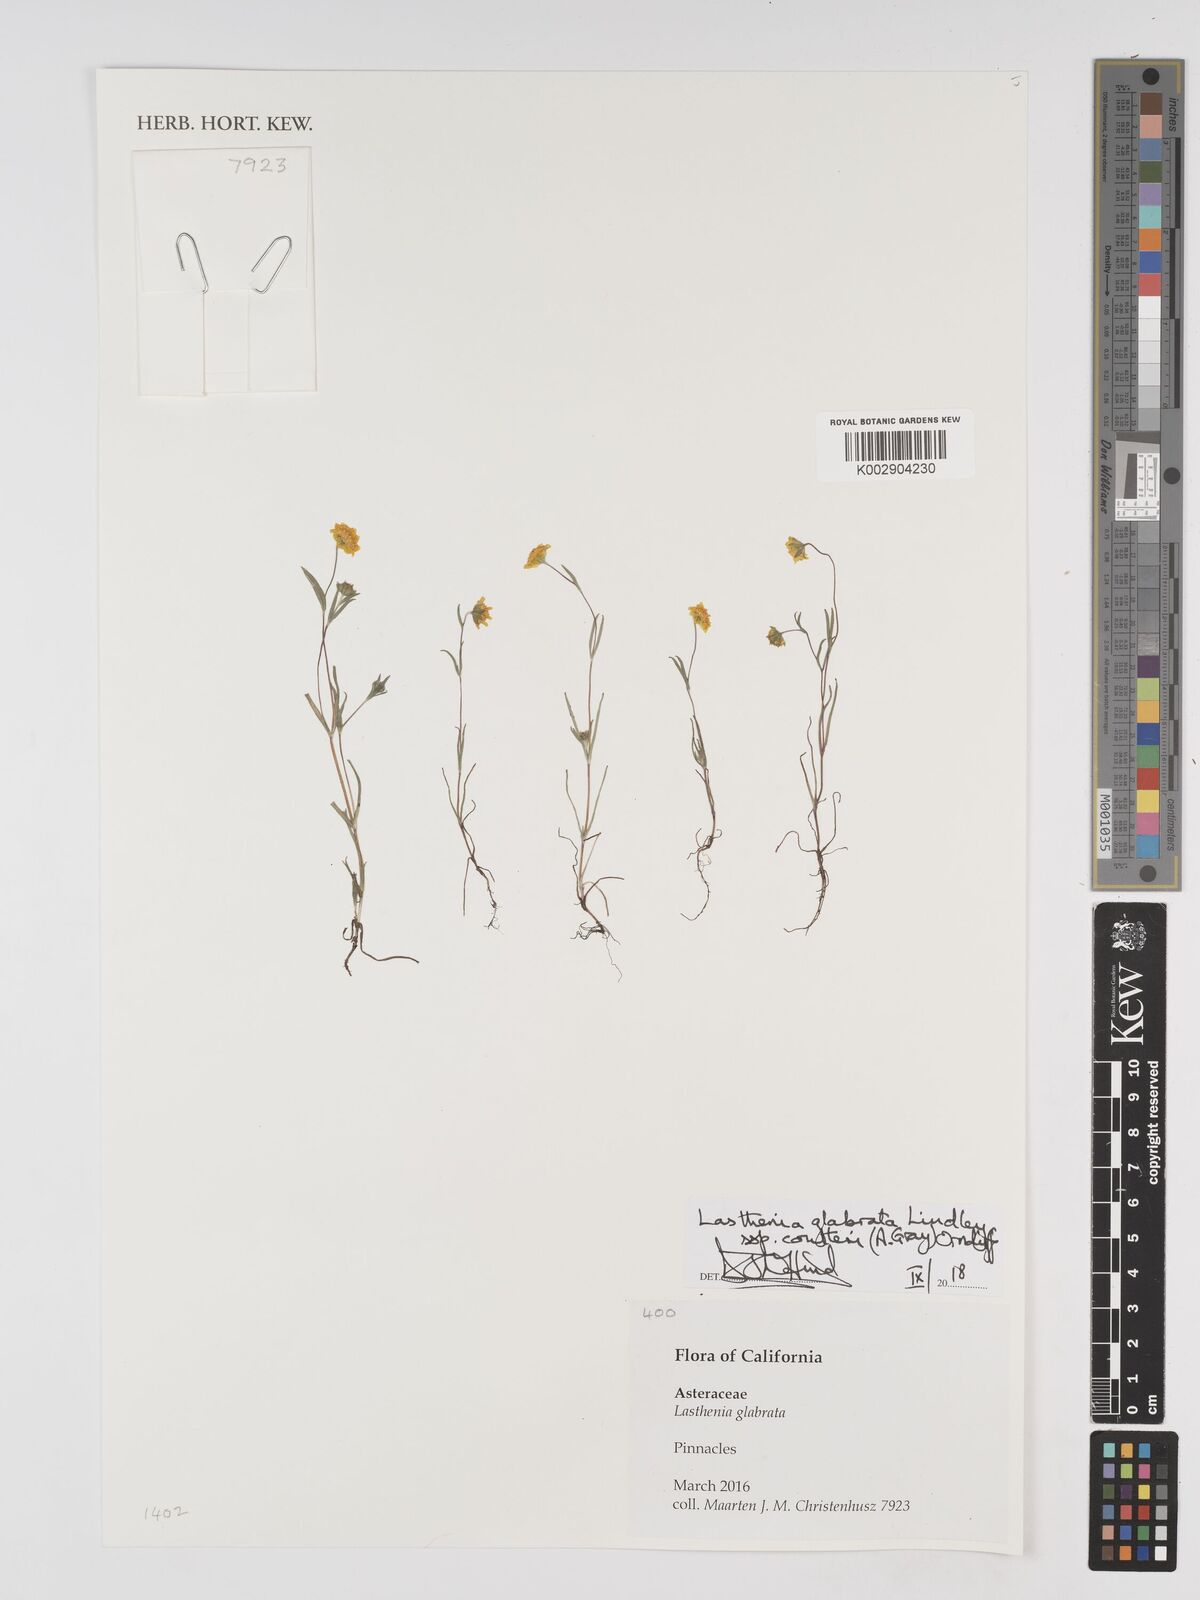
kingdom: Plantae
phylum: Tracheophyta
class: Magnoliopsida
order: Asterales
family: Asteraceae
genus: Lasthenia
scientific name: Lasthenia glabrata
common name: Yellow-ray lasthenia
